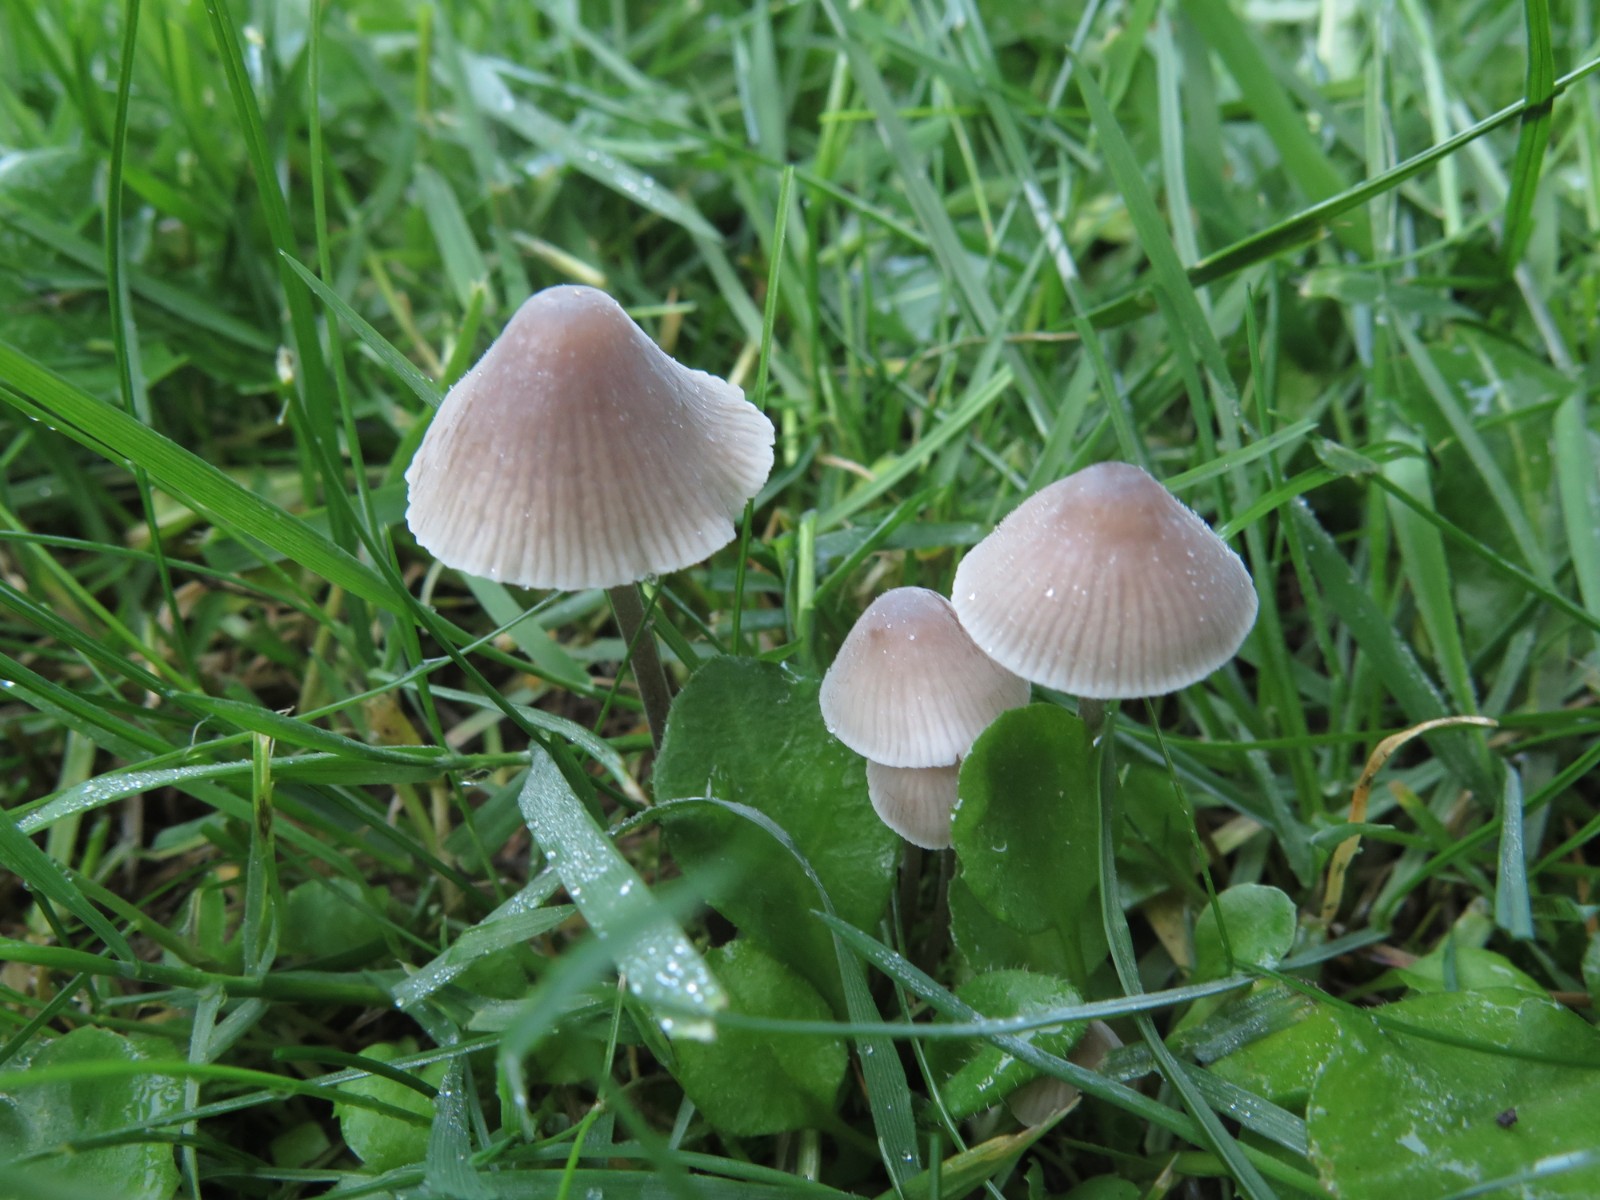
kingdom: Fungi
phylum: Basidiomycota
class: Agaricomycetes
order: Agaricales
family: Mycenaceae
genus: Mycena
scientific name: Mycena leptocephala
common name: klor-huesvamp
